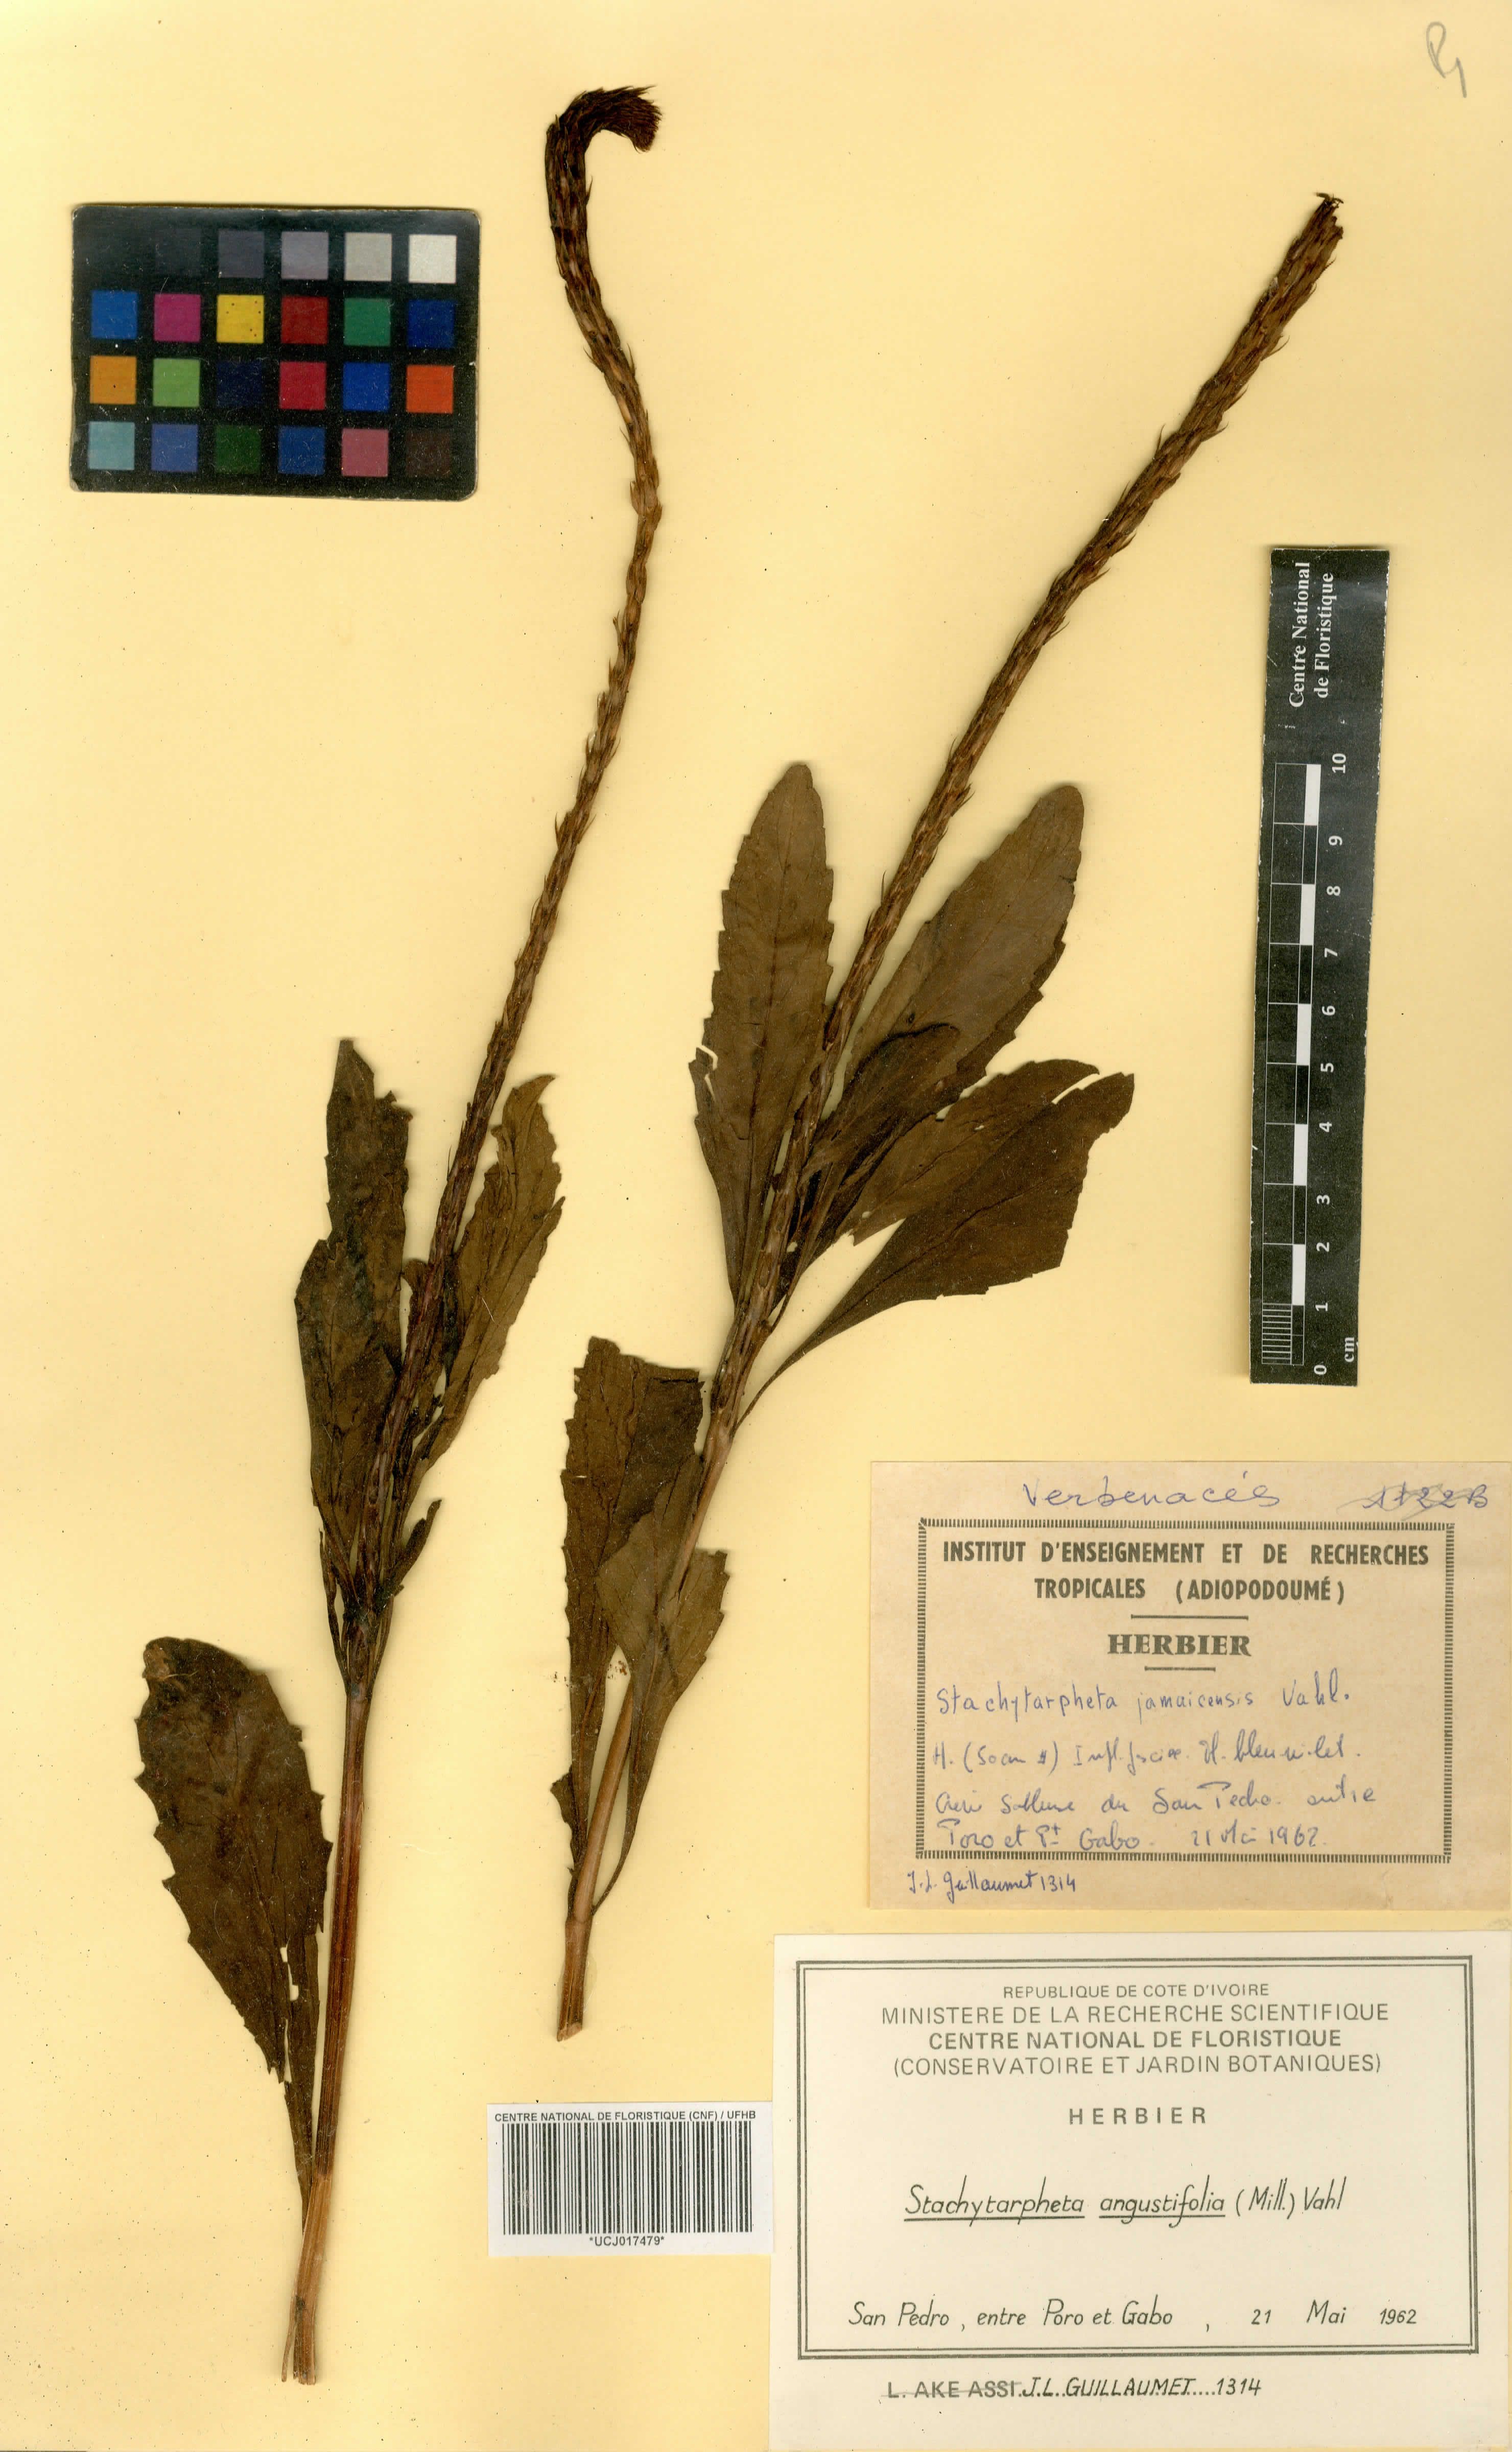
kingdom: Plantae
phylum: Tracheophyta
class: Magnoliopsida
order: Lamiales
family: Verbenaceae
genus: Stachytarpheta
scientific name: Stachytarpheta indica
